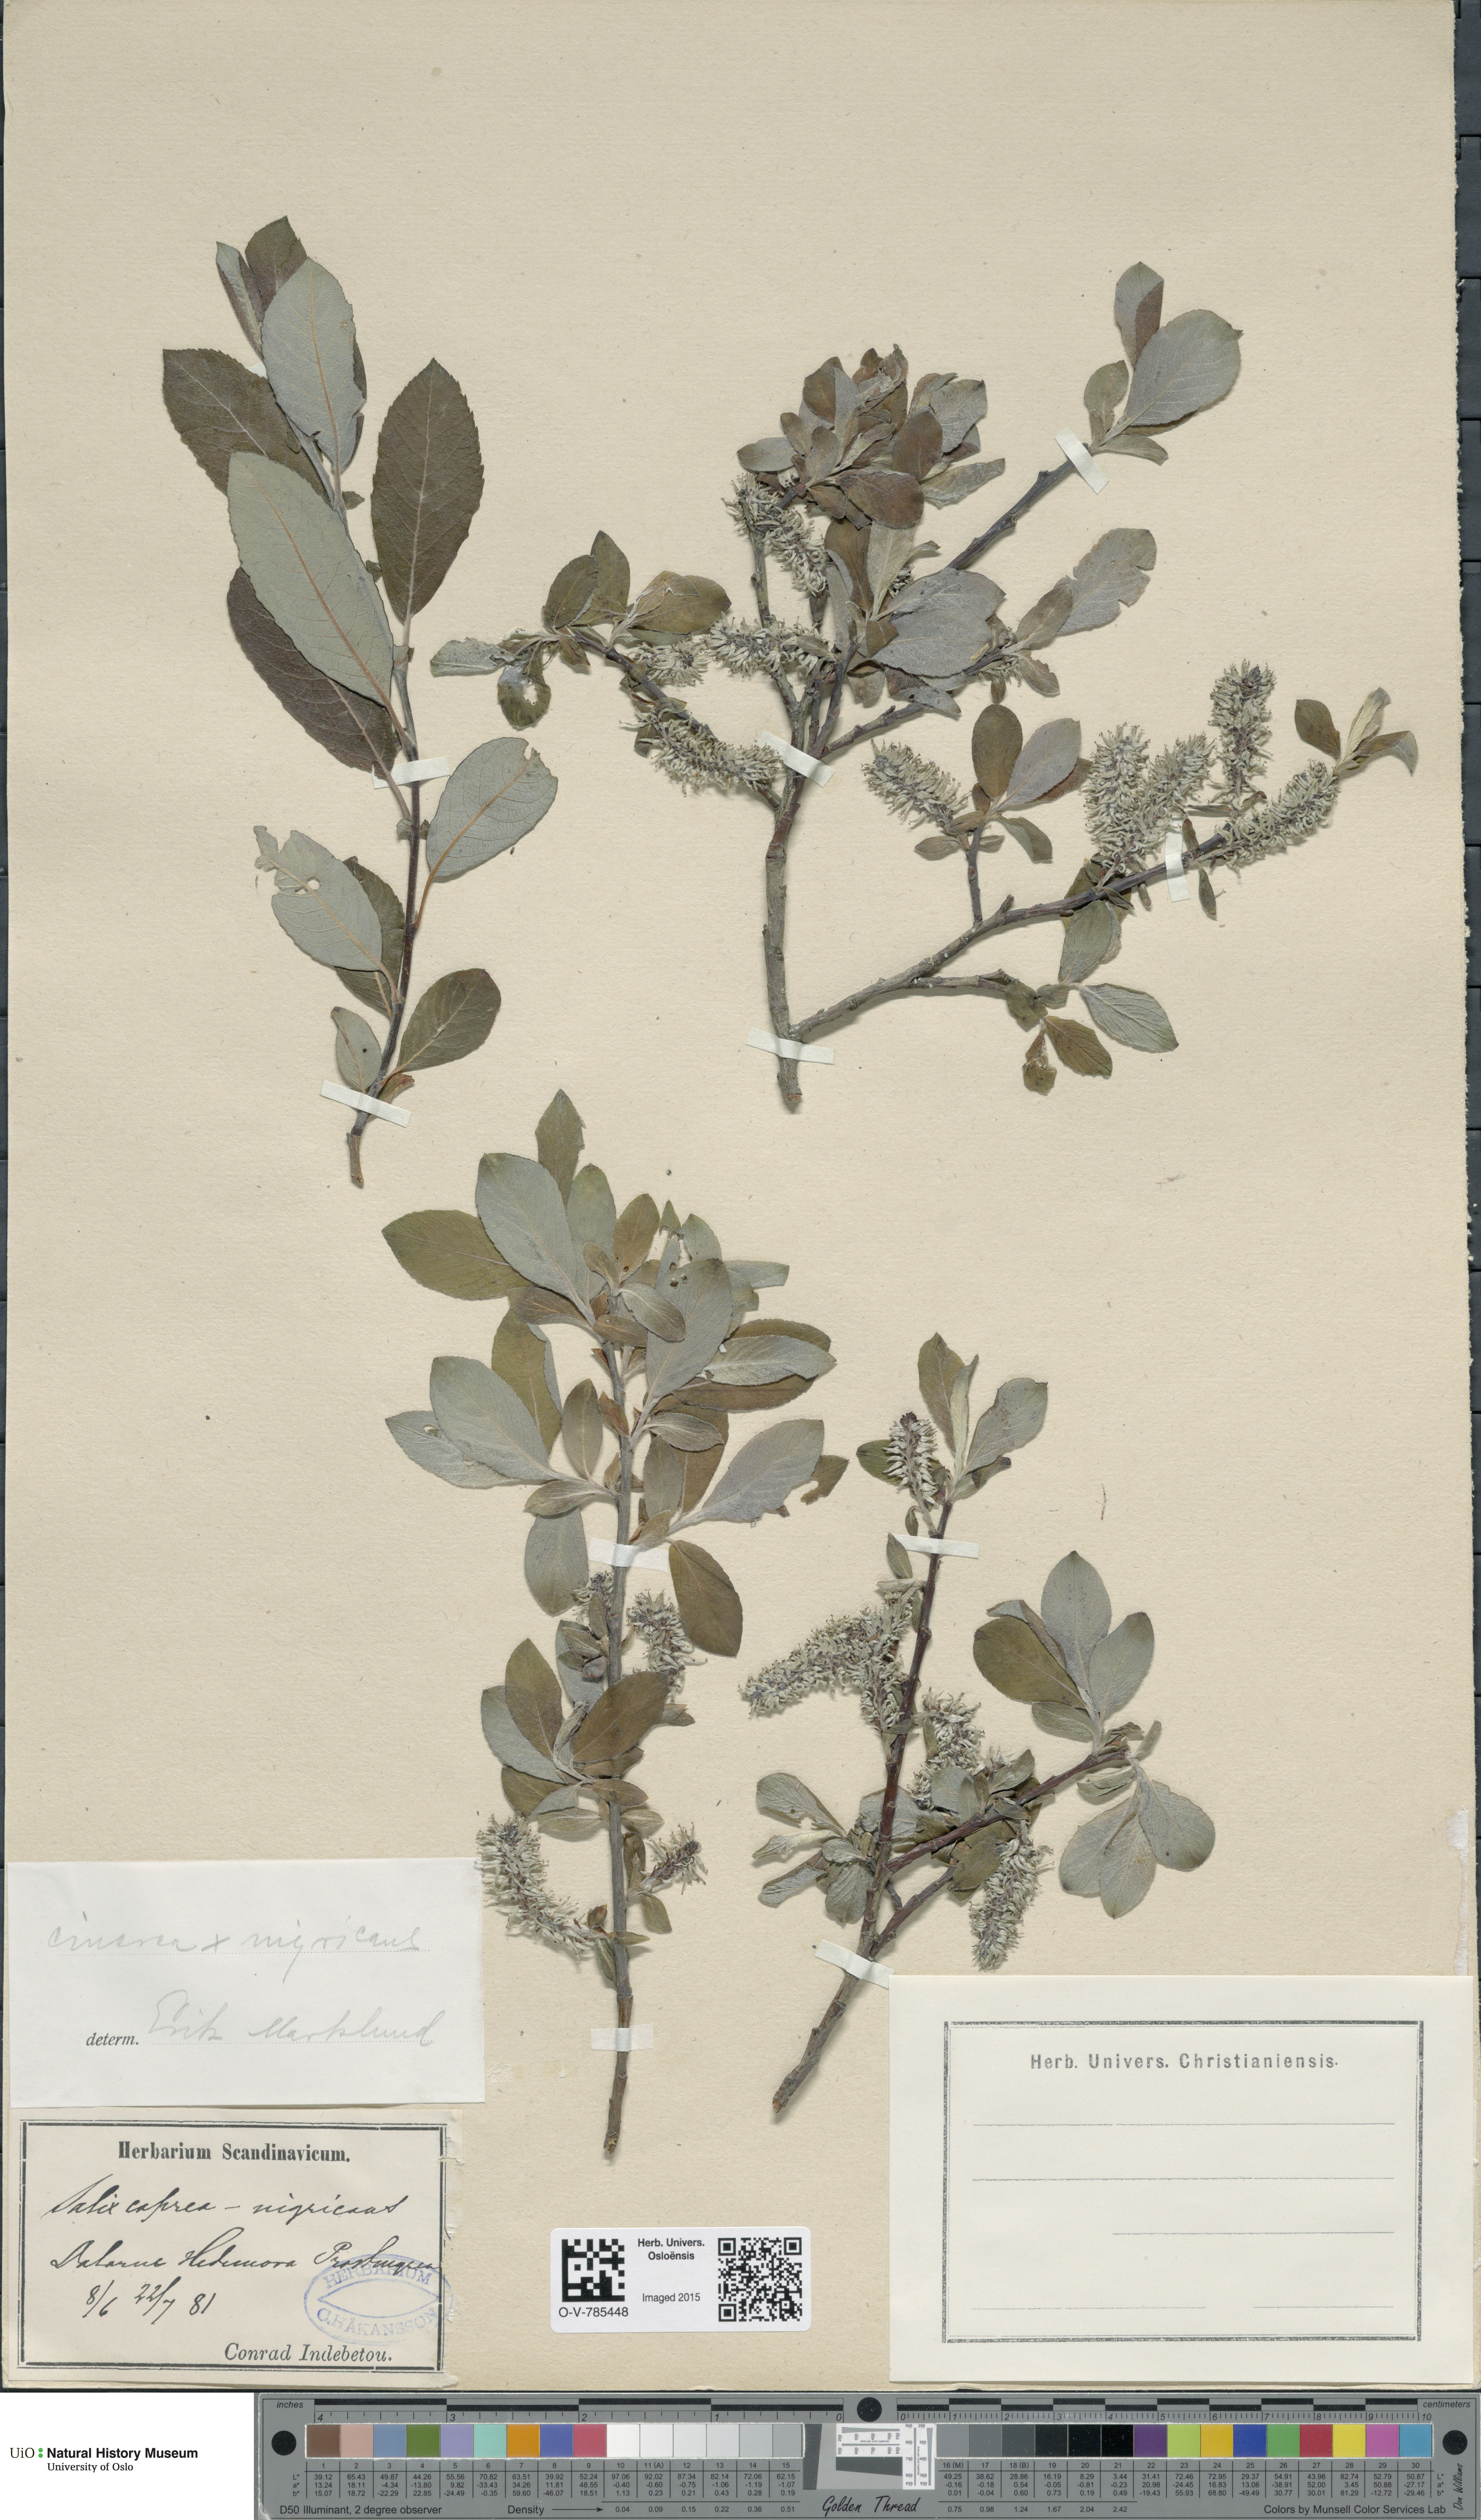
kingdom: Plantae
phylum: Tracheophyta
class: Magnoliopsida
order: Malpighiales
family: Salicaceae
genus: Salix
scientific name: Salix
